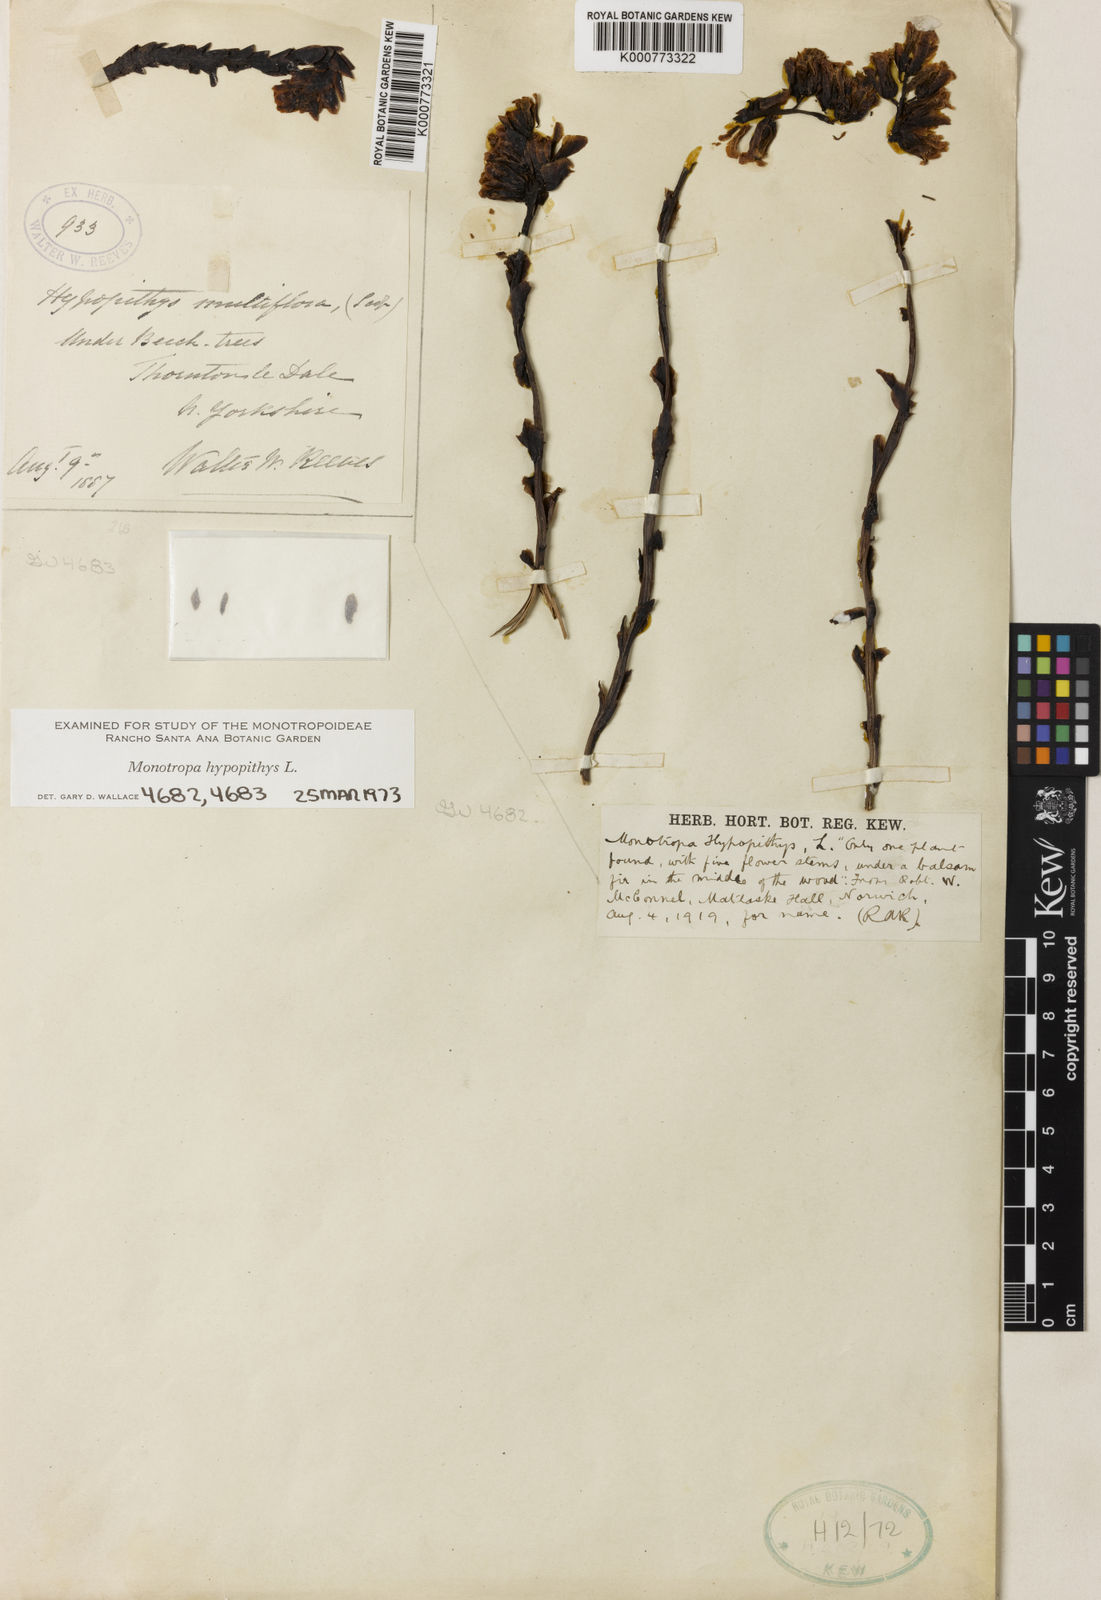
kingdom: Plantae
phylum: Tracheophyta
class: Magnoliopsida
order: Ericales
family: Ericaceae
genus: Monotropa
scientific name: Monotropa
